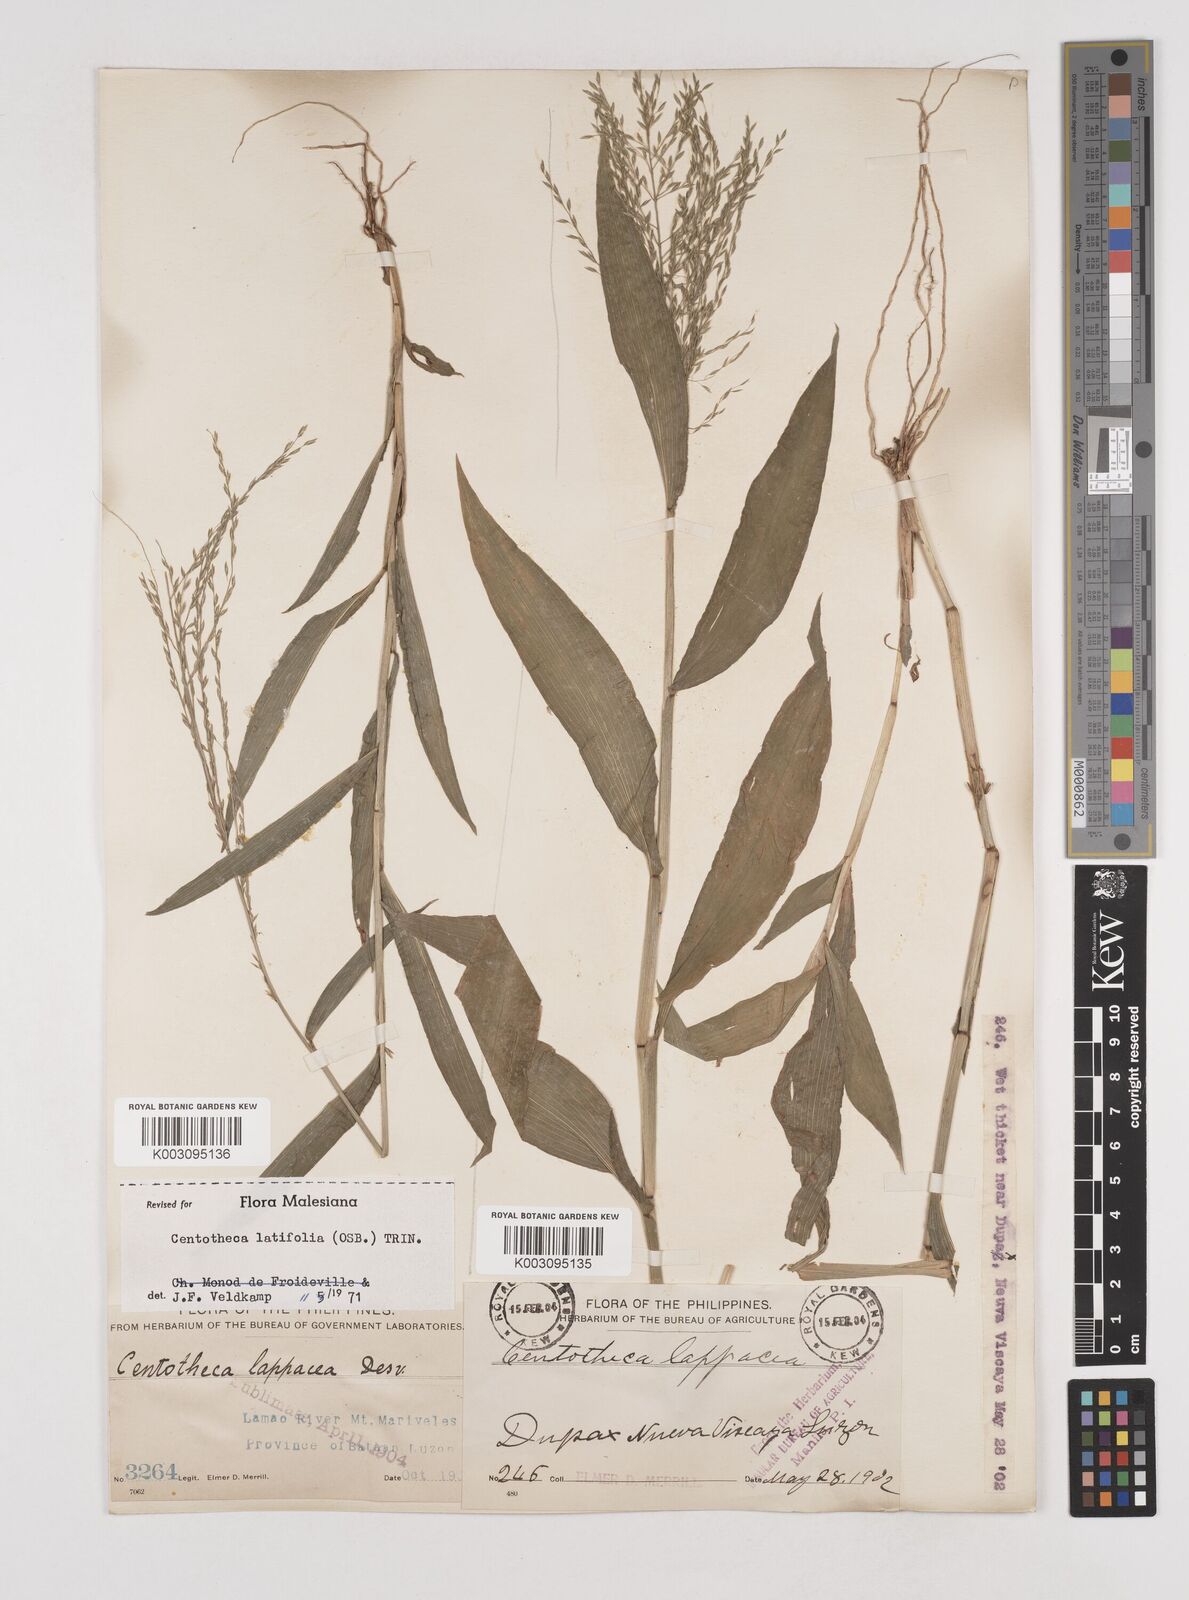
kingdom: Plantae
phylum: Tracheophyta
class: Liliopsida
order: Poales
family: Poaceae
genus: Centotheca
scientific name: Centotheca lappacea
